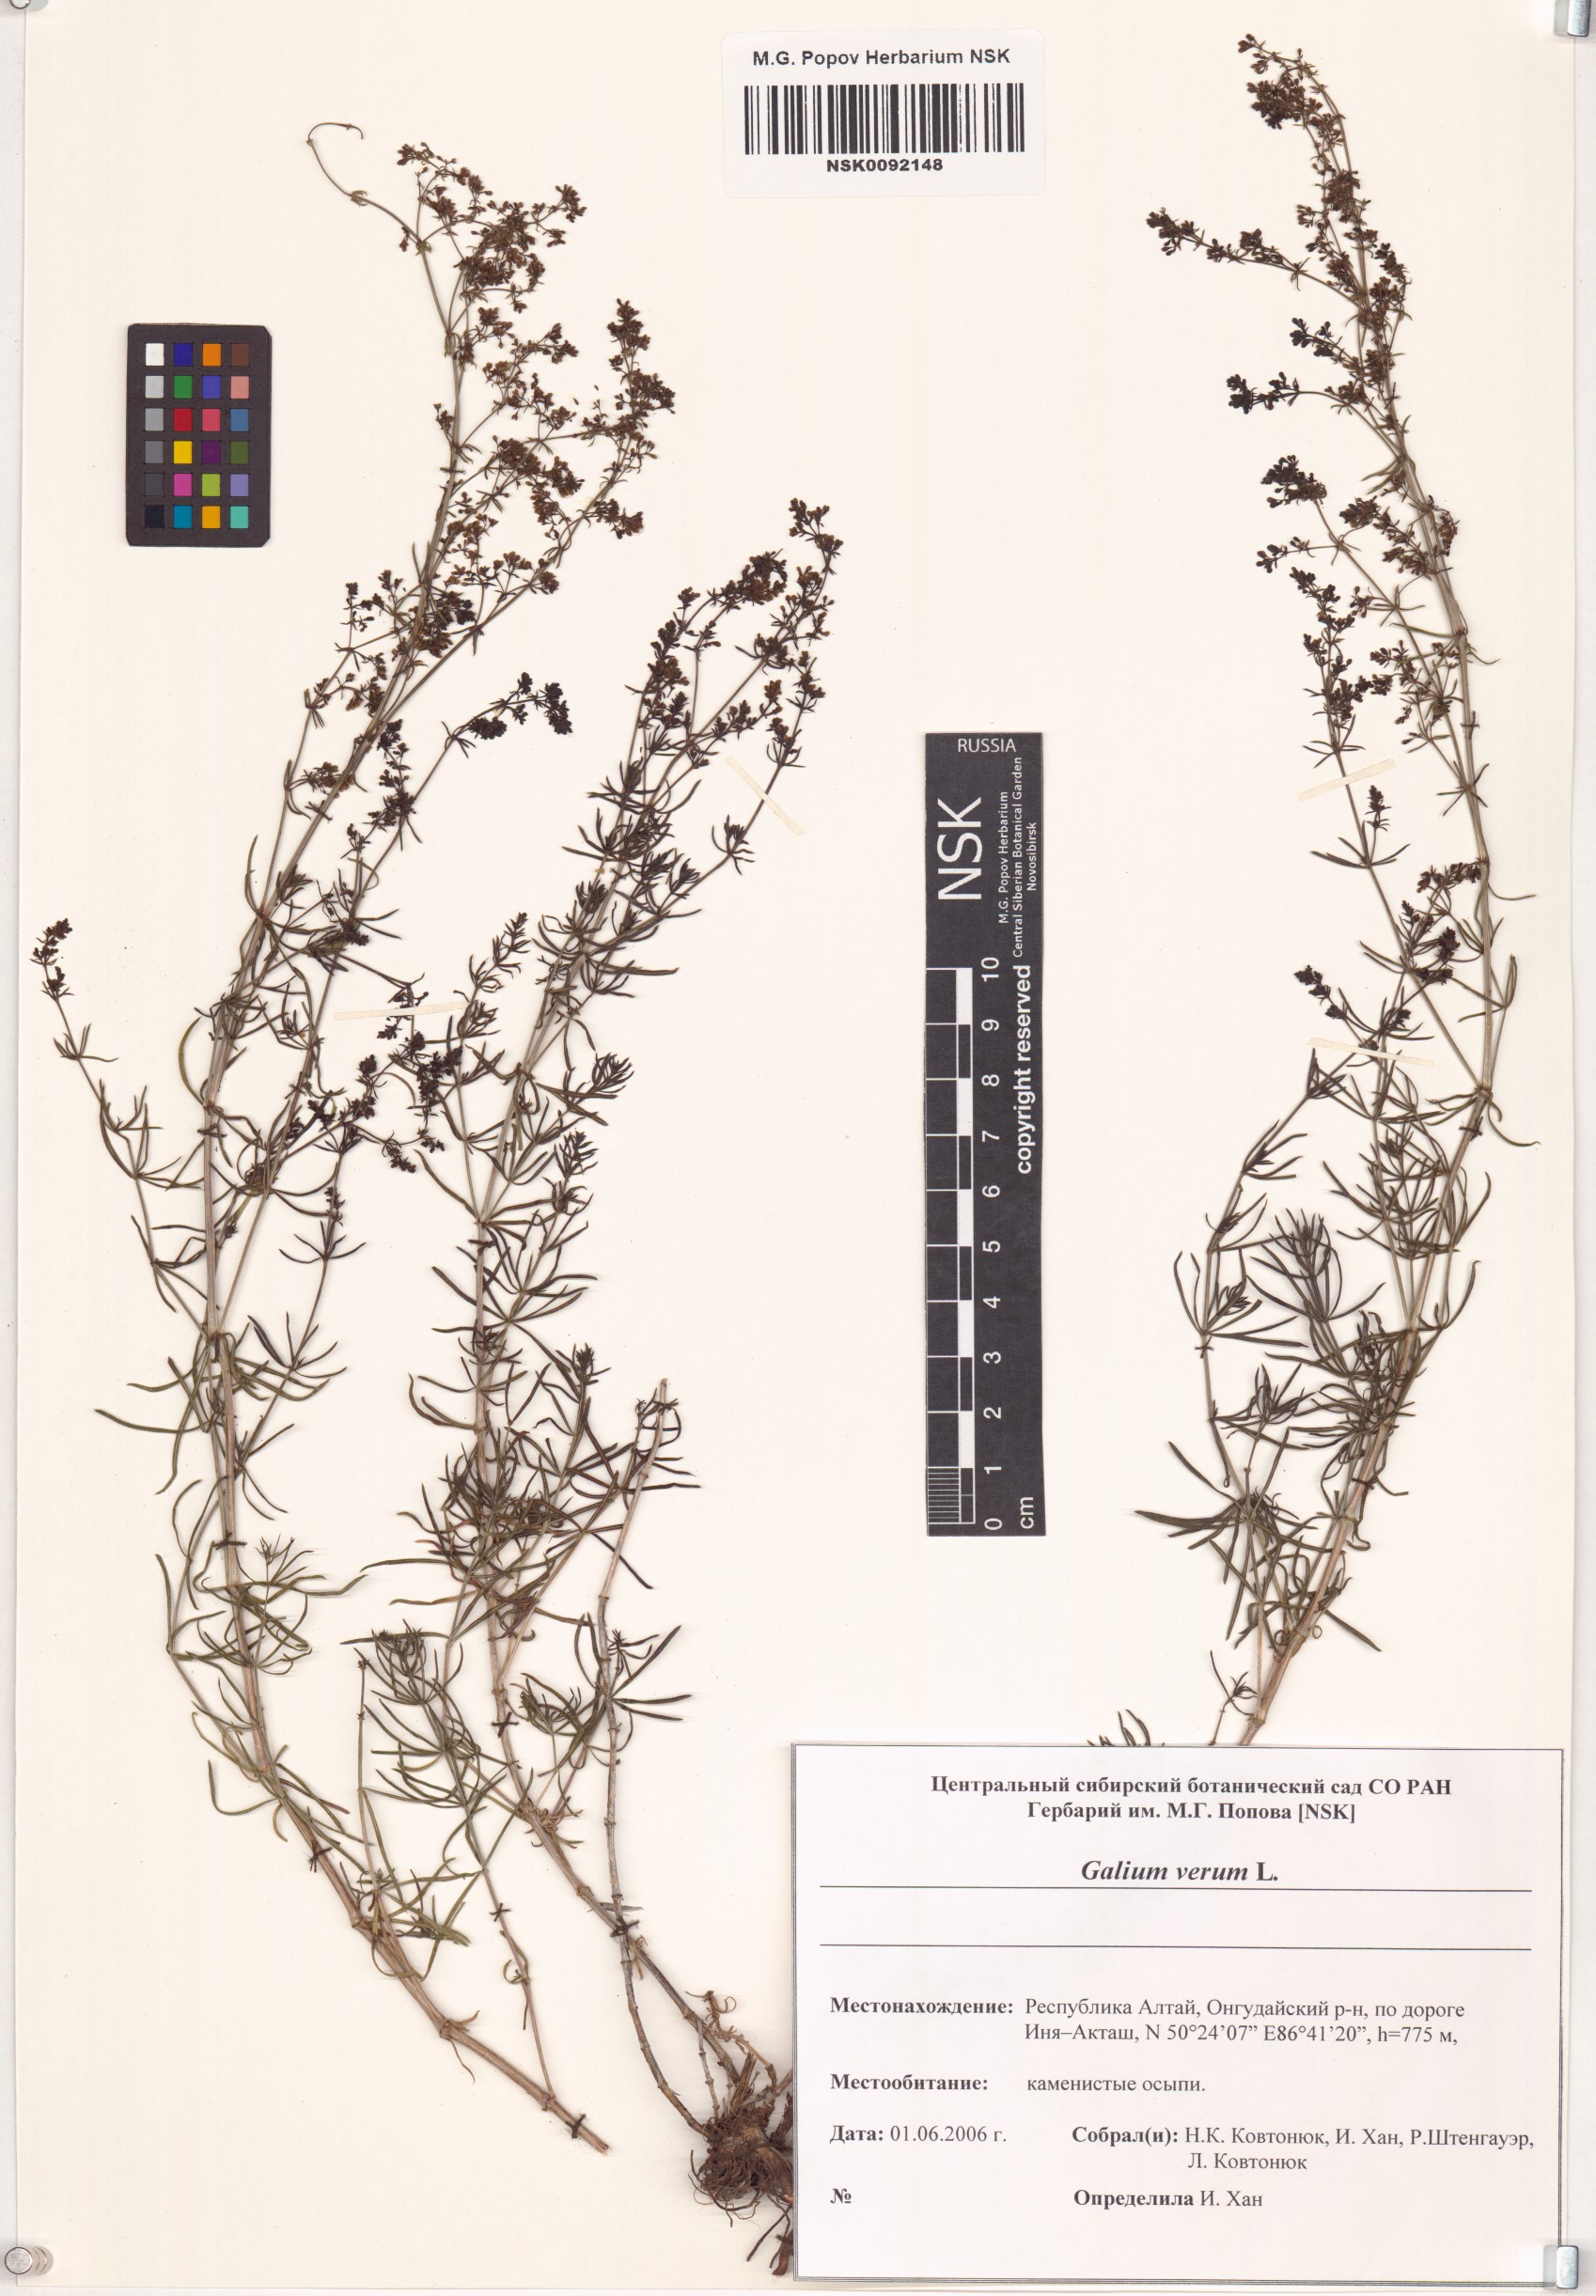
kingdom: Plantae
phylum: Tracheophyta
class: Magnoliopsida
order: Gentianales
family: Rubiaceae
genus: Galium
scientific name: Galium verum
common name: Lady's bedstraw
